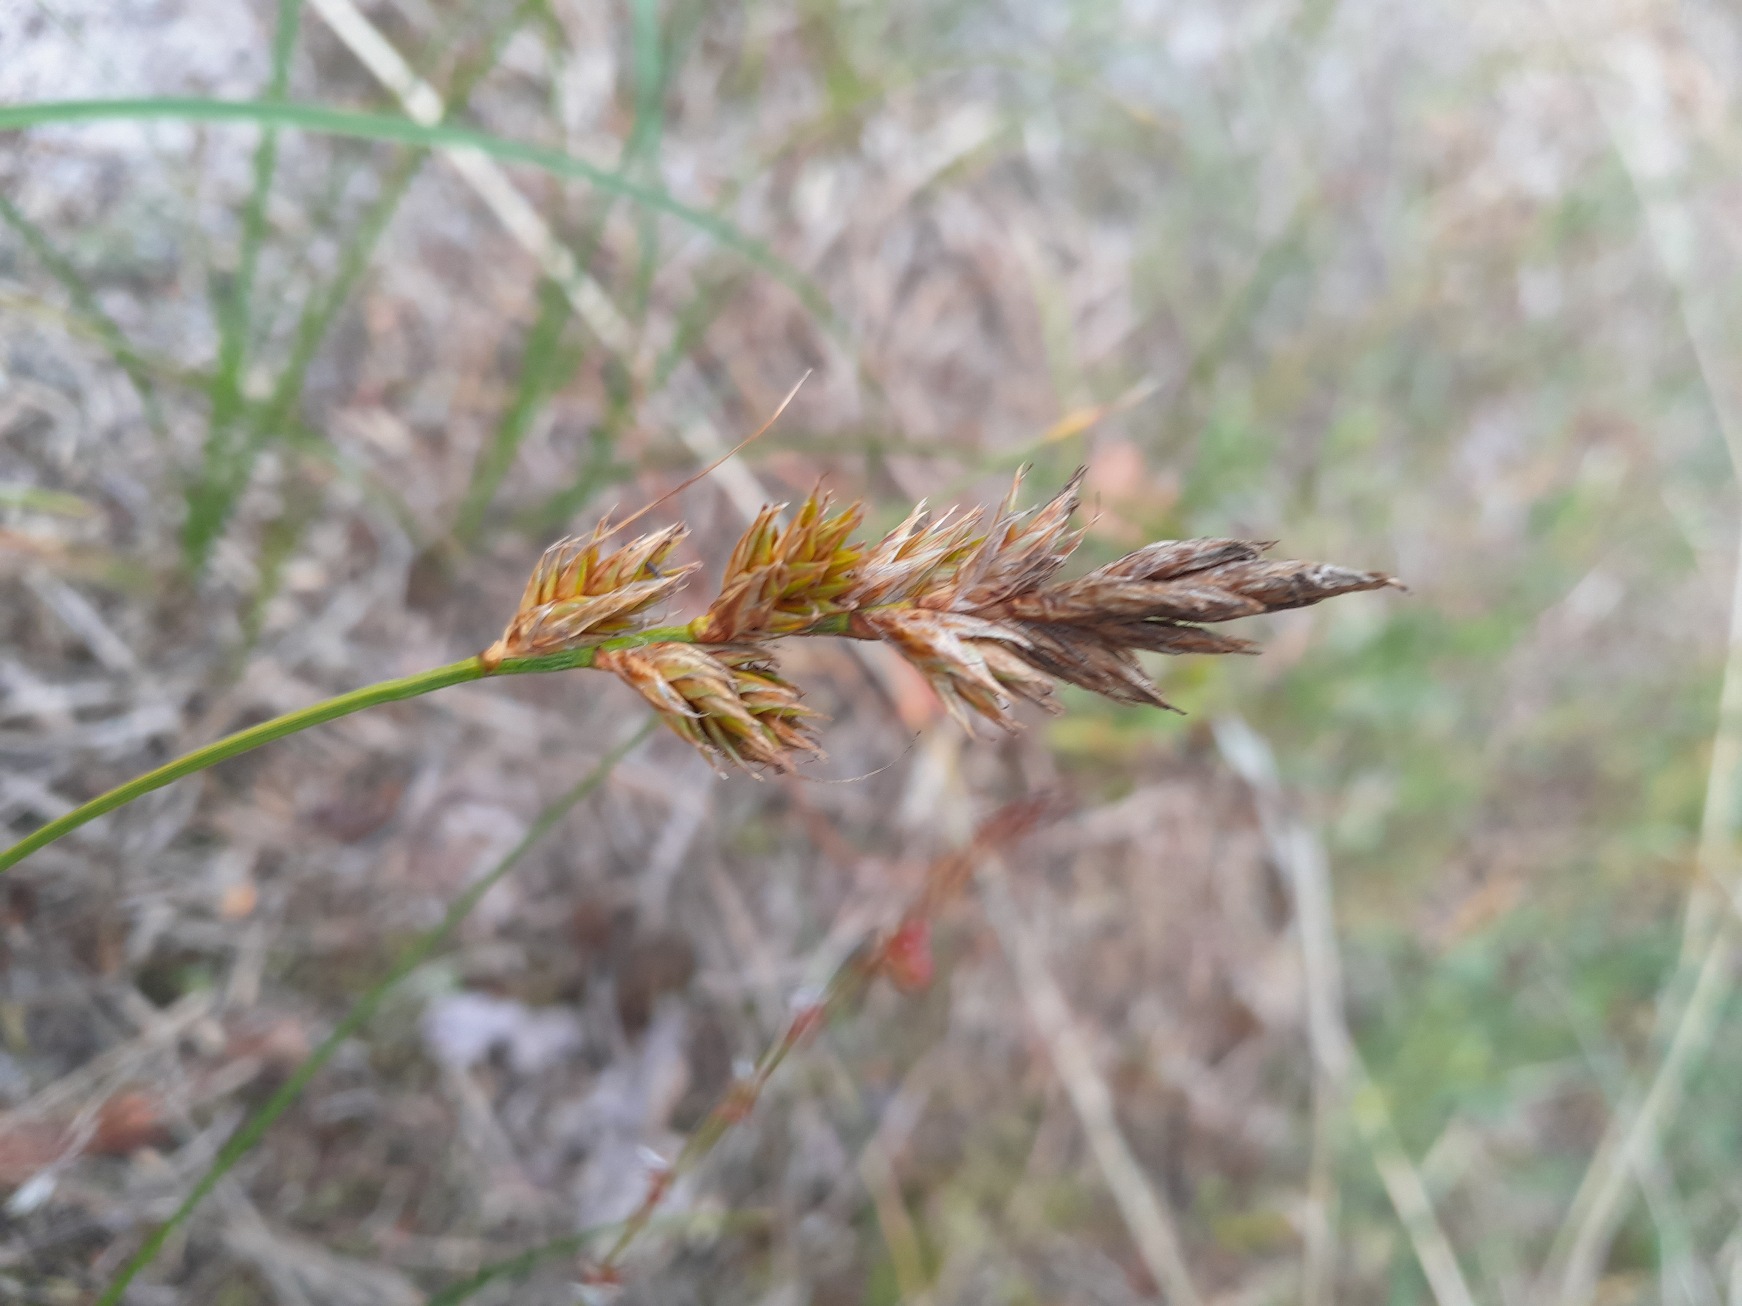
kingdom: Plantae
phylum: Tracheophyta
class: Liliopsida
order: Poales
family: Cyperaceae
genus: Carex
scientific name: Carex arenaria
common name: Sand-star
